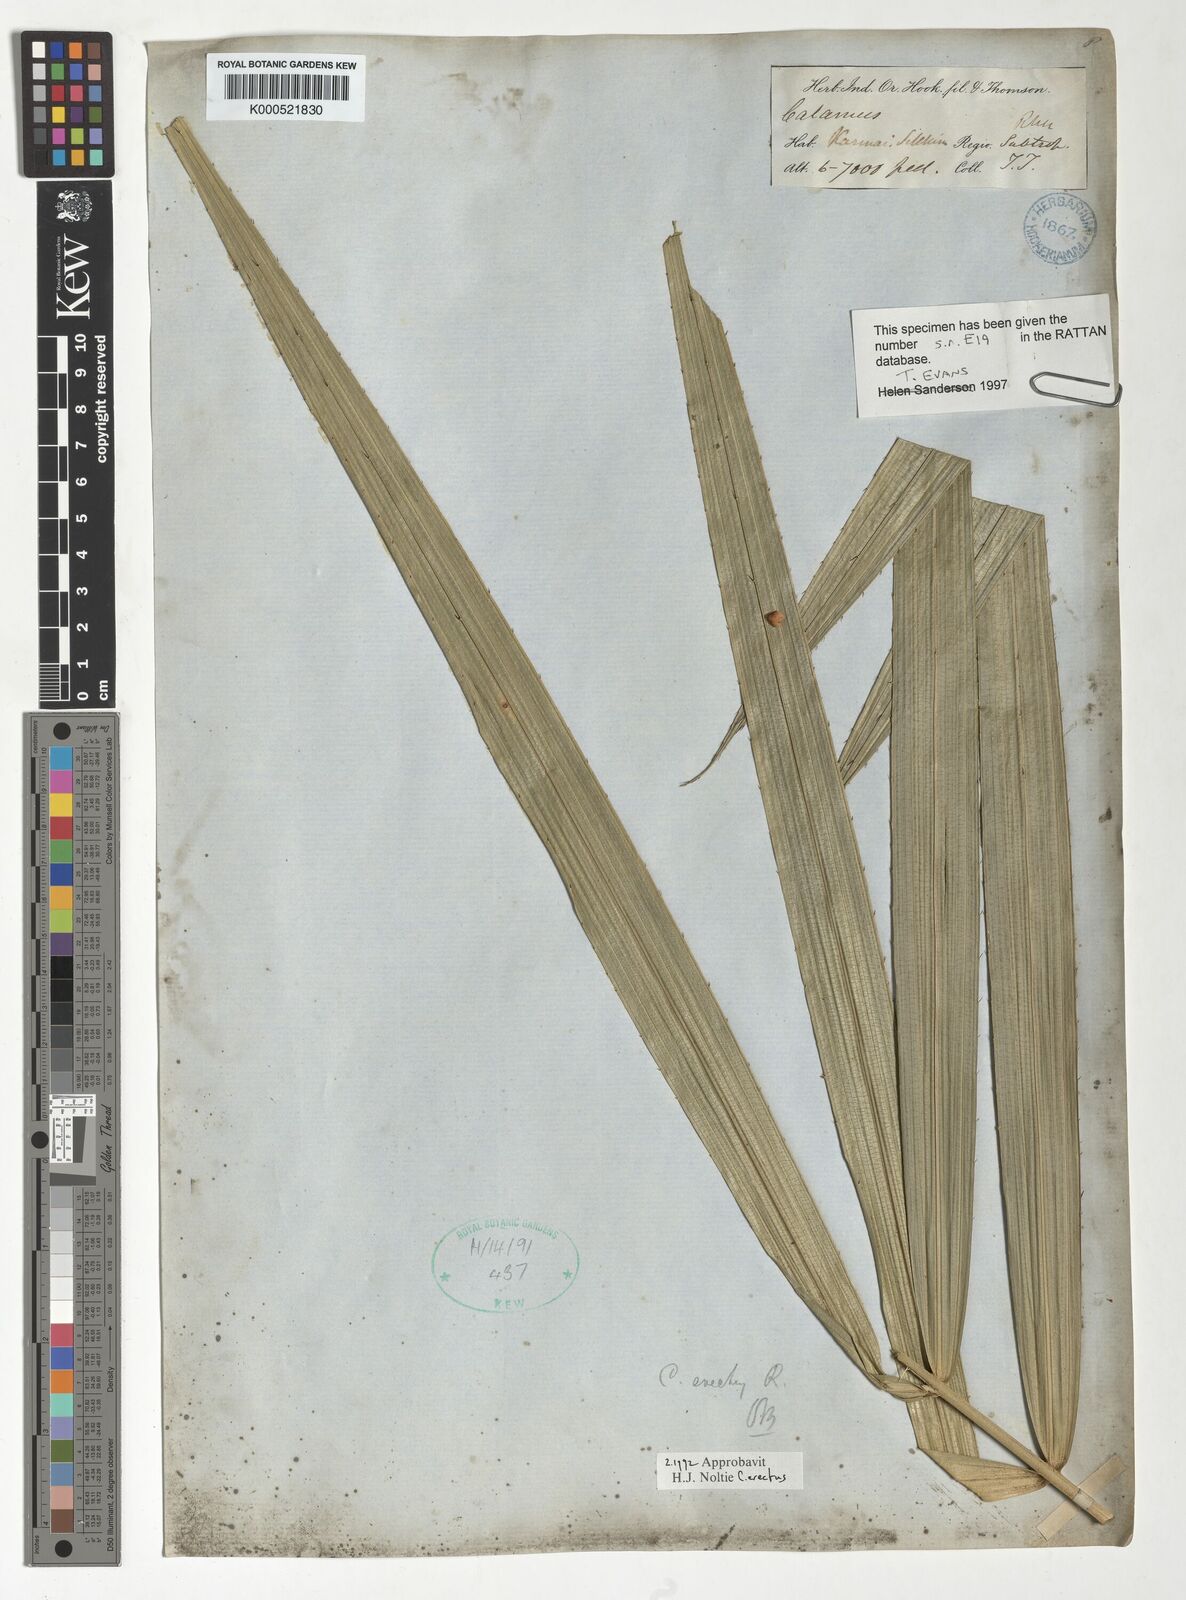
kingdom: Plantae
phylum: Tracheophyta
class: Liliopsida
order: Arecales
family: Arecaceae
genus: Calamus
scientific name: Calamus erectus
